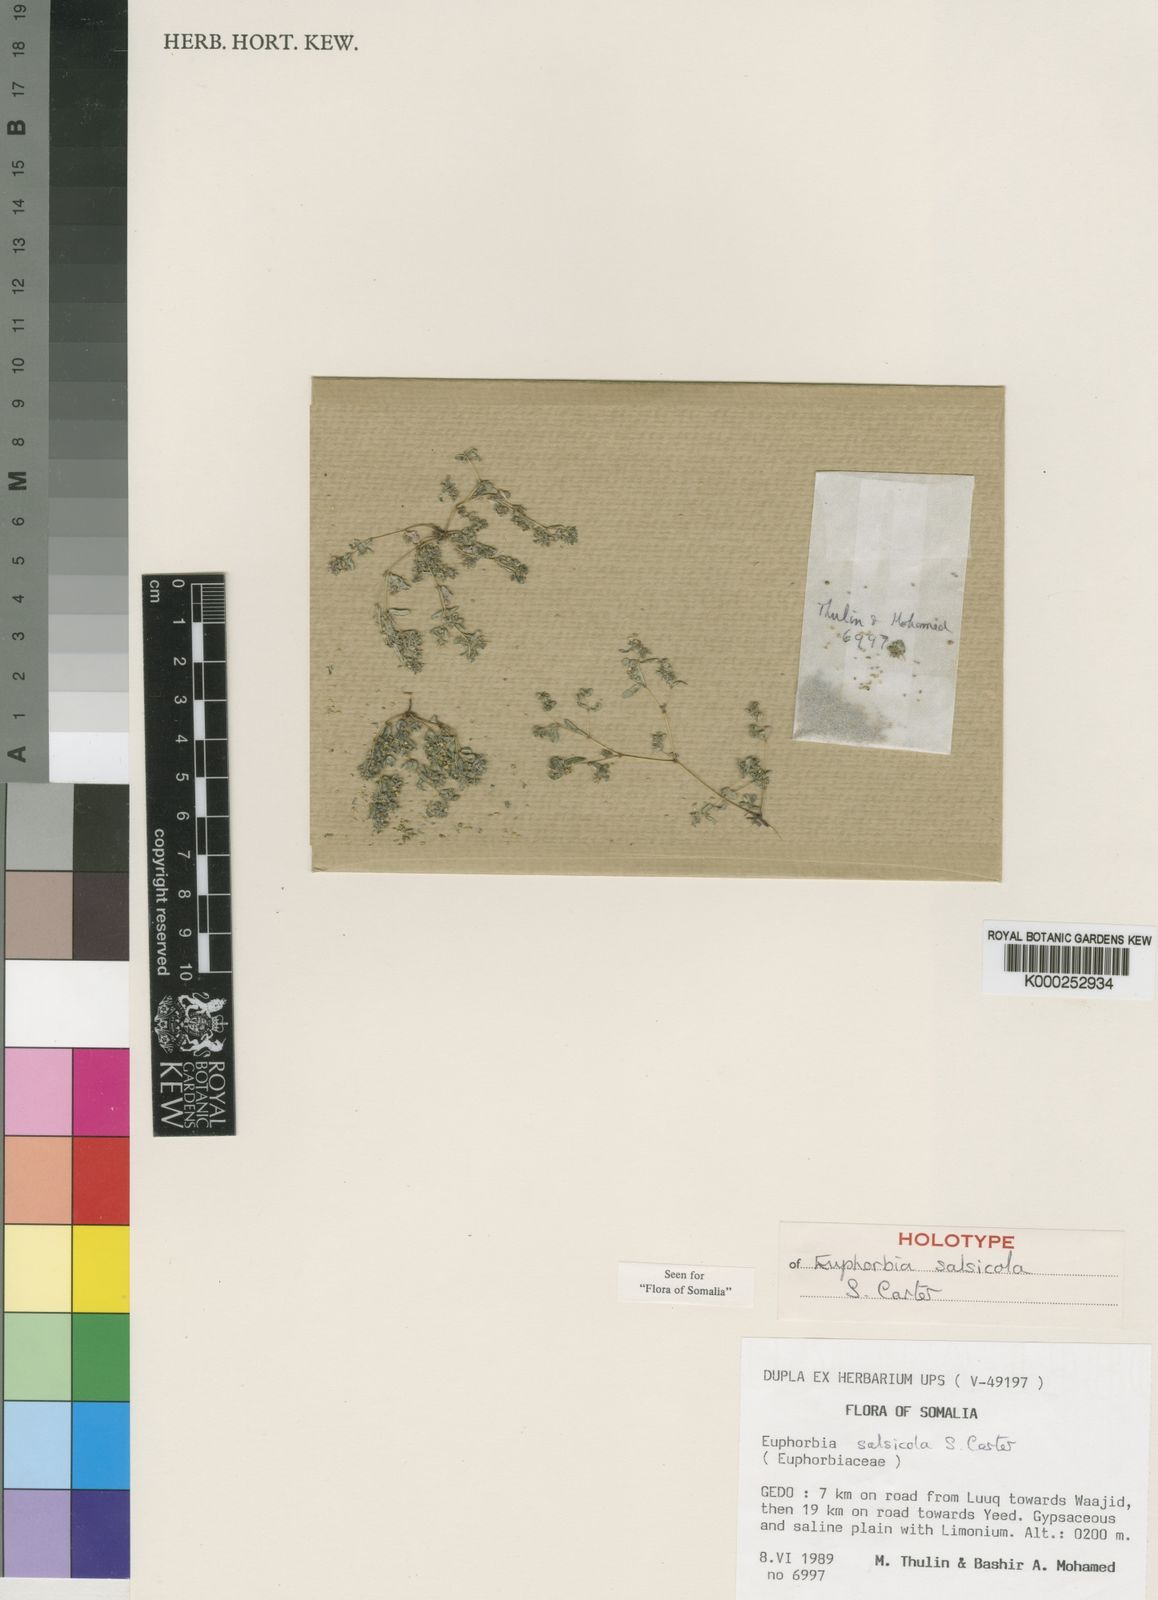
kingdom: Plantae
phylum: Tracheophyta
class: Magnoliopsida
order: Malpighiales
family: Euphorbiaceae
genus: Euphorbia
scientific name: Euphorbia salsicola
